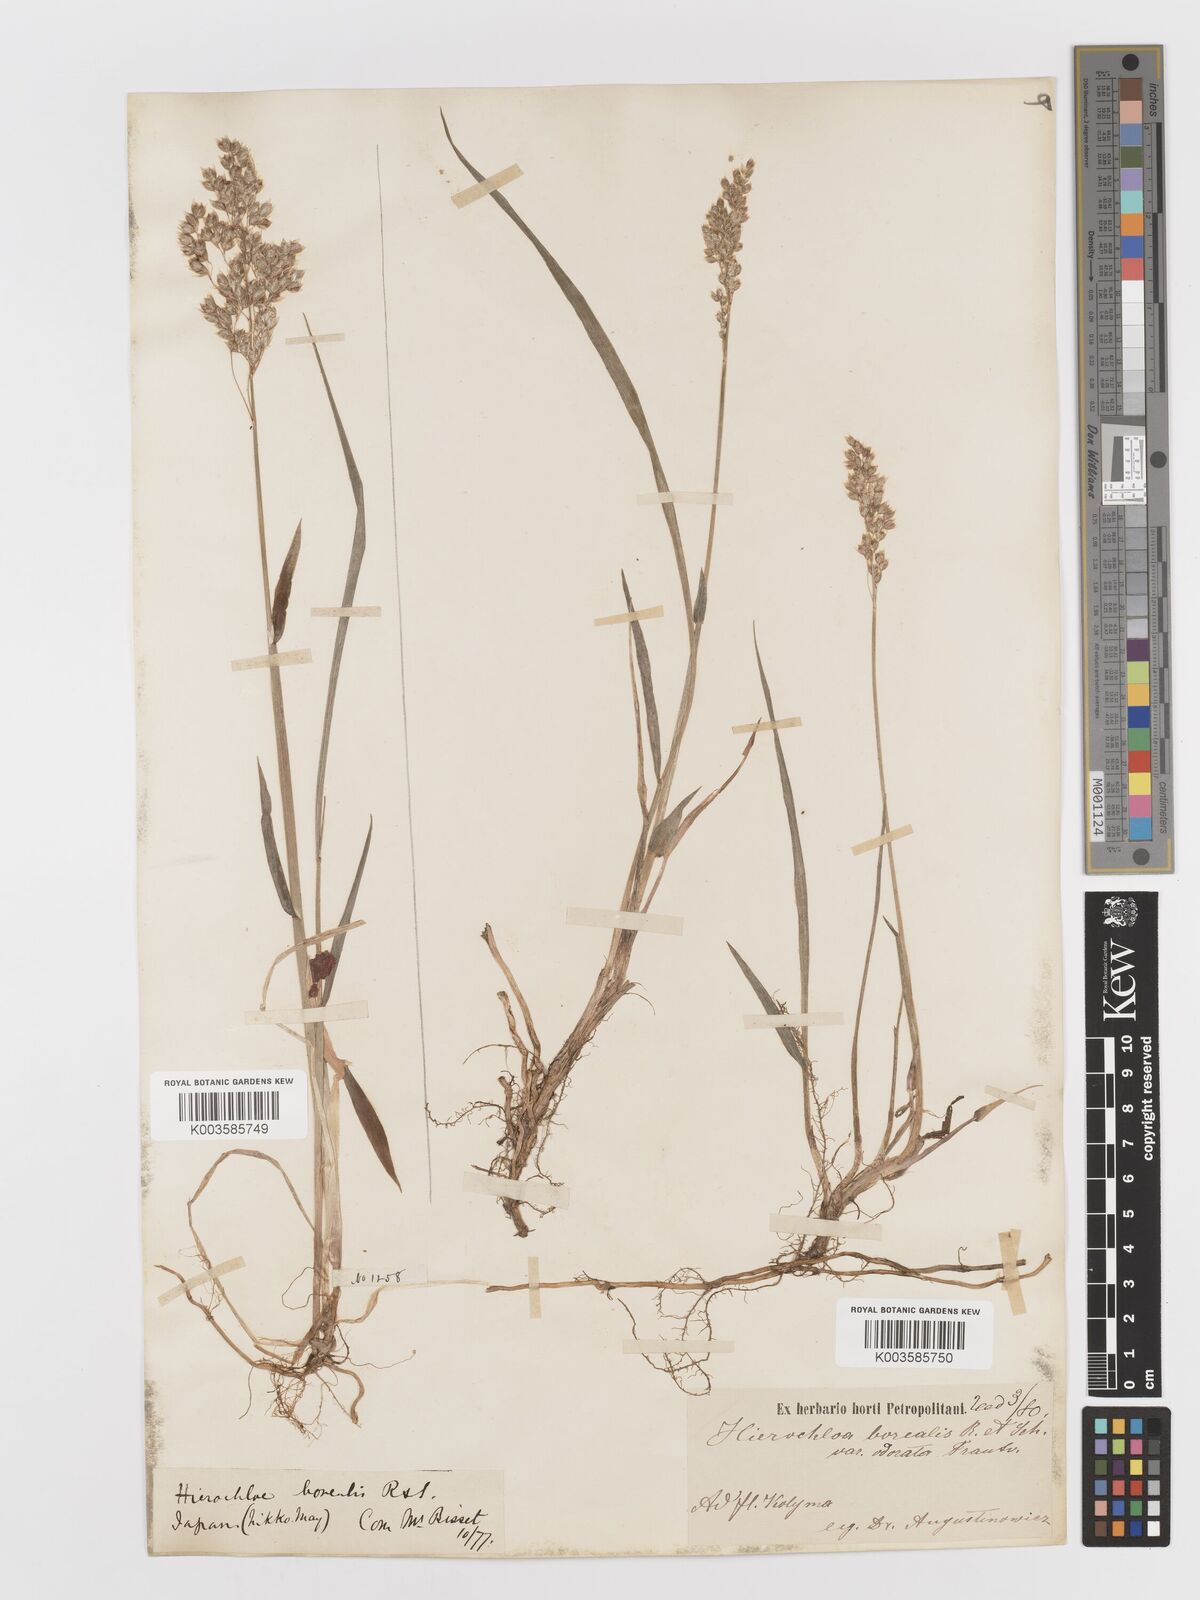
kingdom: Plantae
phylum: Tracheophyta
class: Liliopsida
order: Poales
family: Poaceae
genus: Anthoxanthum
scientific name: Anthoxanthum nitens
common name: Holy grass
